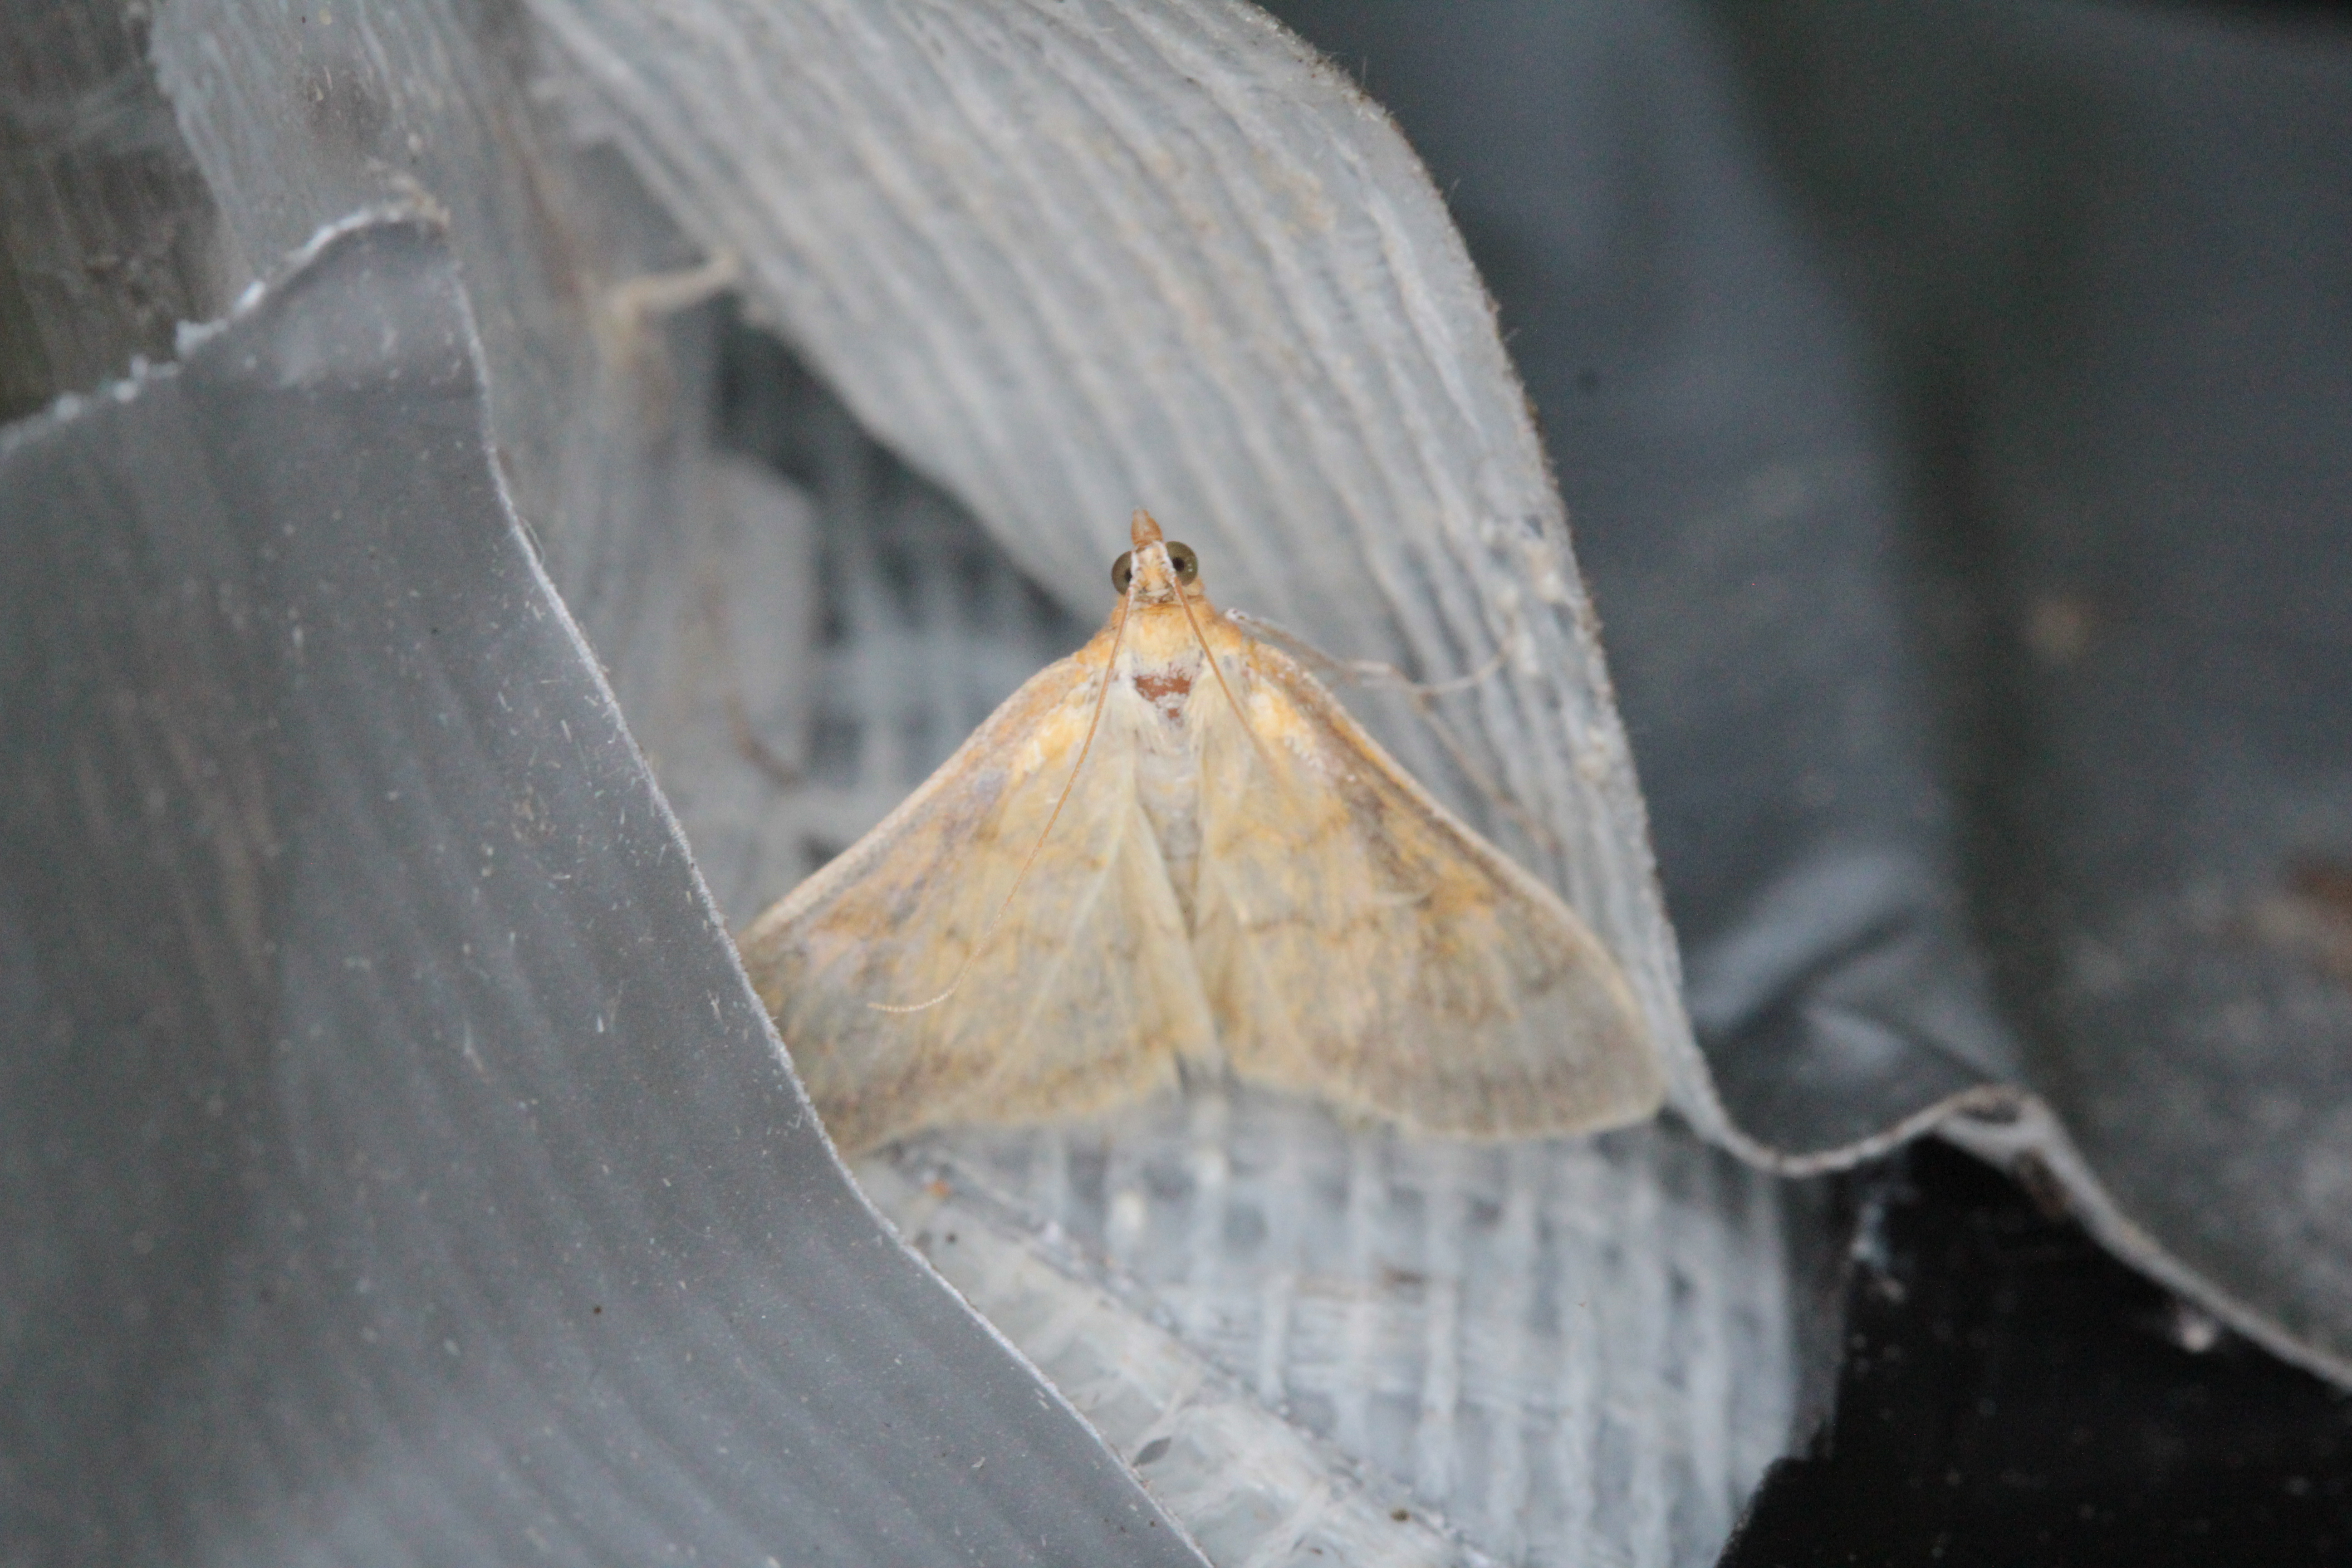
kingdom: Animalia
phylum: Arthropoda
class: Insecta
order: Lepidoptera
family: Crambidae
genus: Paratalanta
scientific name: Paratalanta pandalis
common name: Bordered pearl
